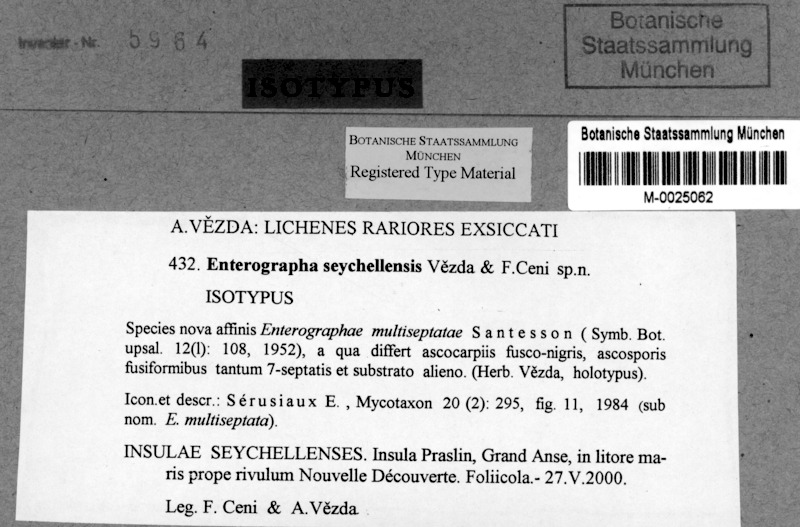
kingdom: Fungi
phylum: Ascomycota
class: Arthoniomycetes
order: Arthoniales
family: Roccellaceae
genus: Enterographa
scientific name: Enterographa seychellensis
